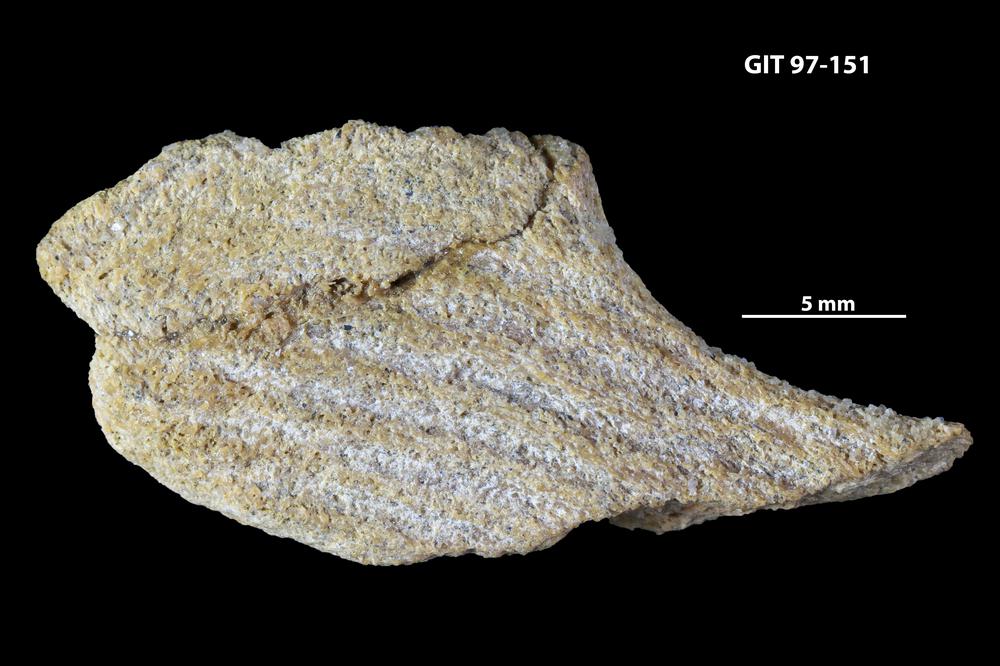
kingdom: Animalia
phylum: Chordata
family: Holonematidae
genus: Holonema
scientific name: Holonema
